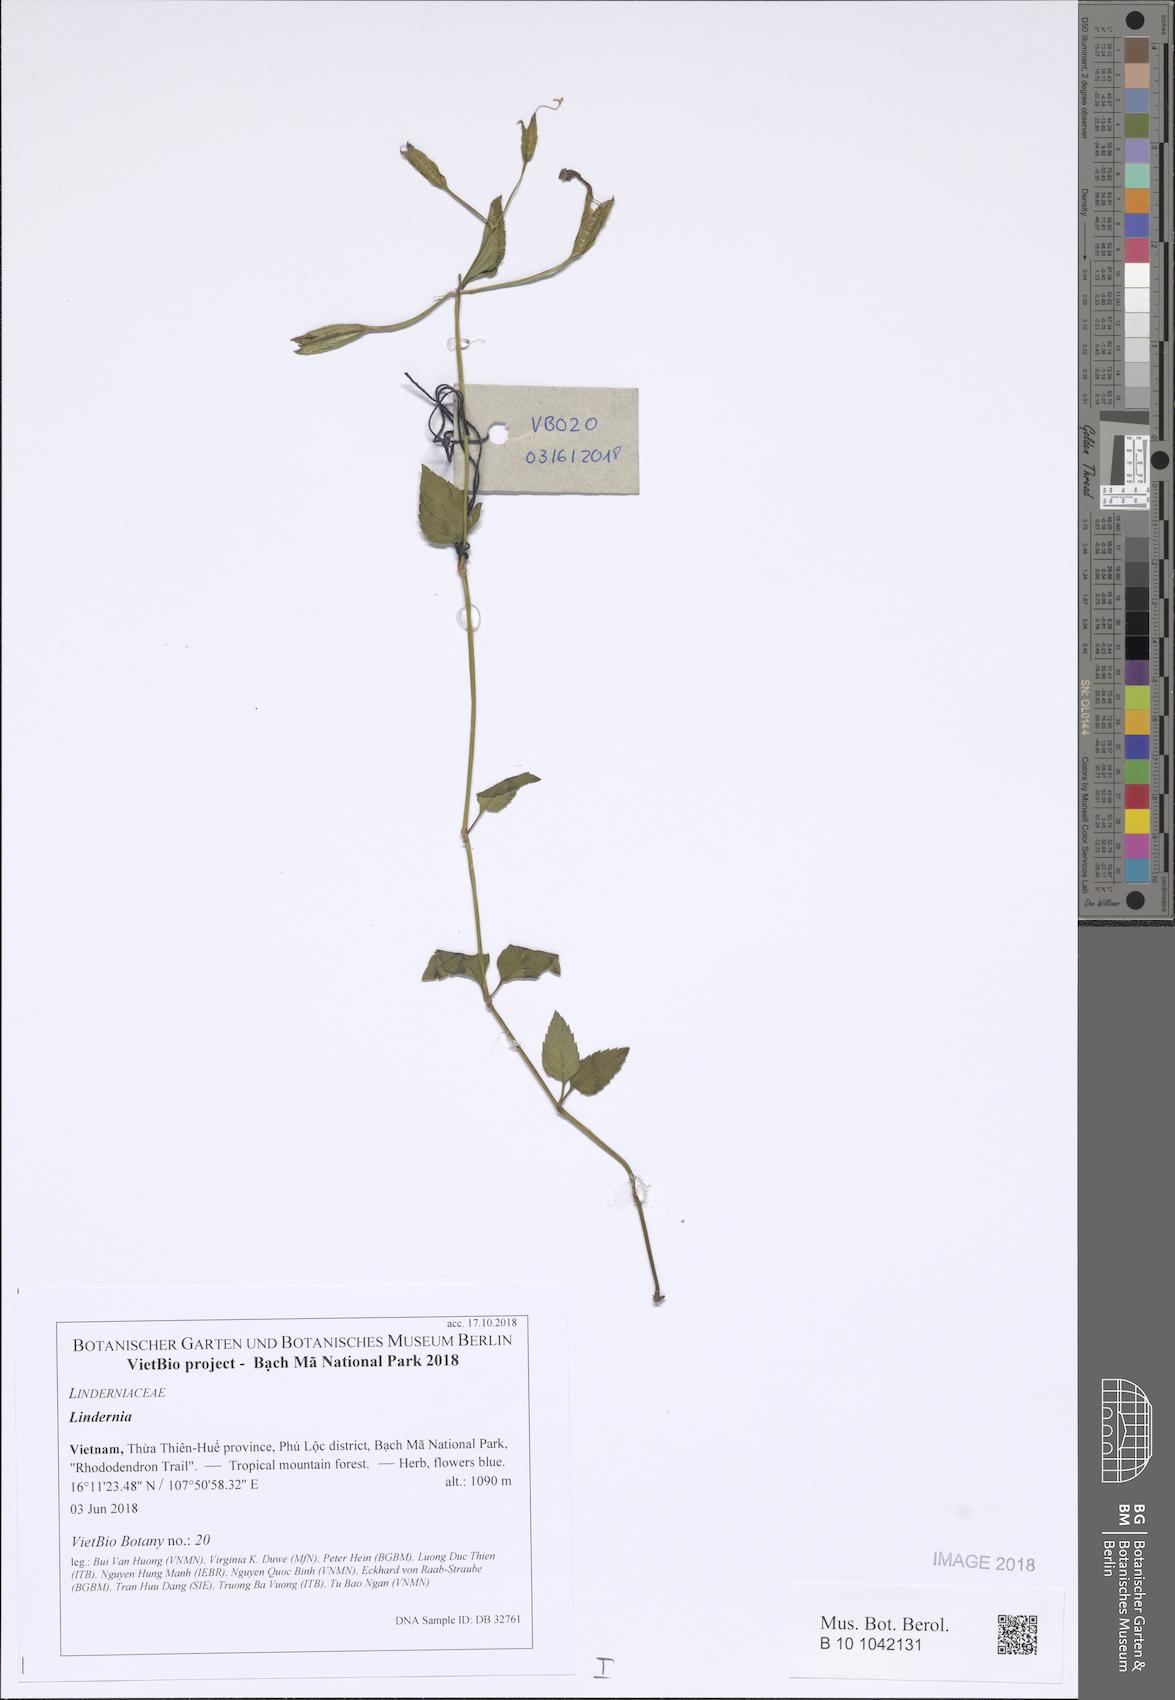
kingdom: Plantae
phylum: Tracheophyta
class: Magnoliopsida
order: Lamiales
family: Linderniaceae
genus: Torenia
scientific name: Torenia perennans
